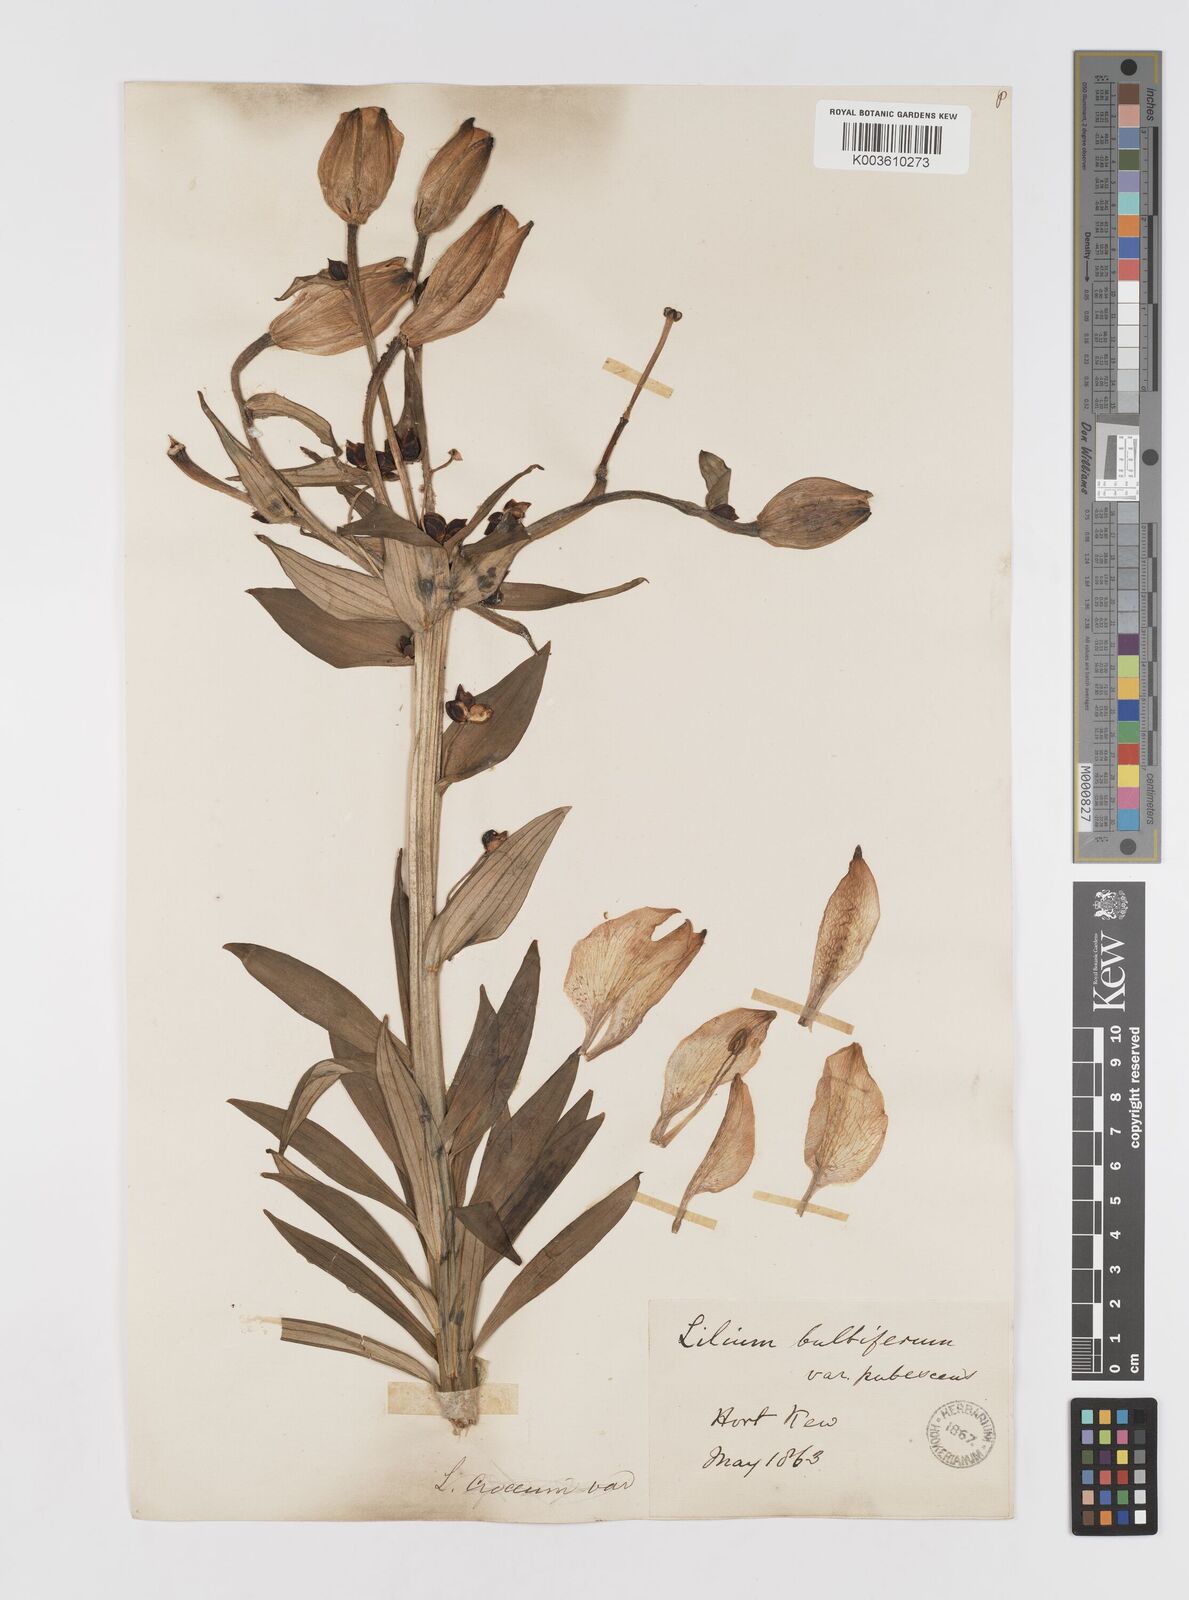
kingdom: Plantae
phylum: Tracheophyta
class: Liliopsida
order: Liliales
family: Liliaceae
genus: Lilium
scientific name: Lilium bulbiferum
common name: Orange lily
